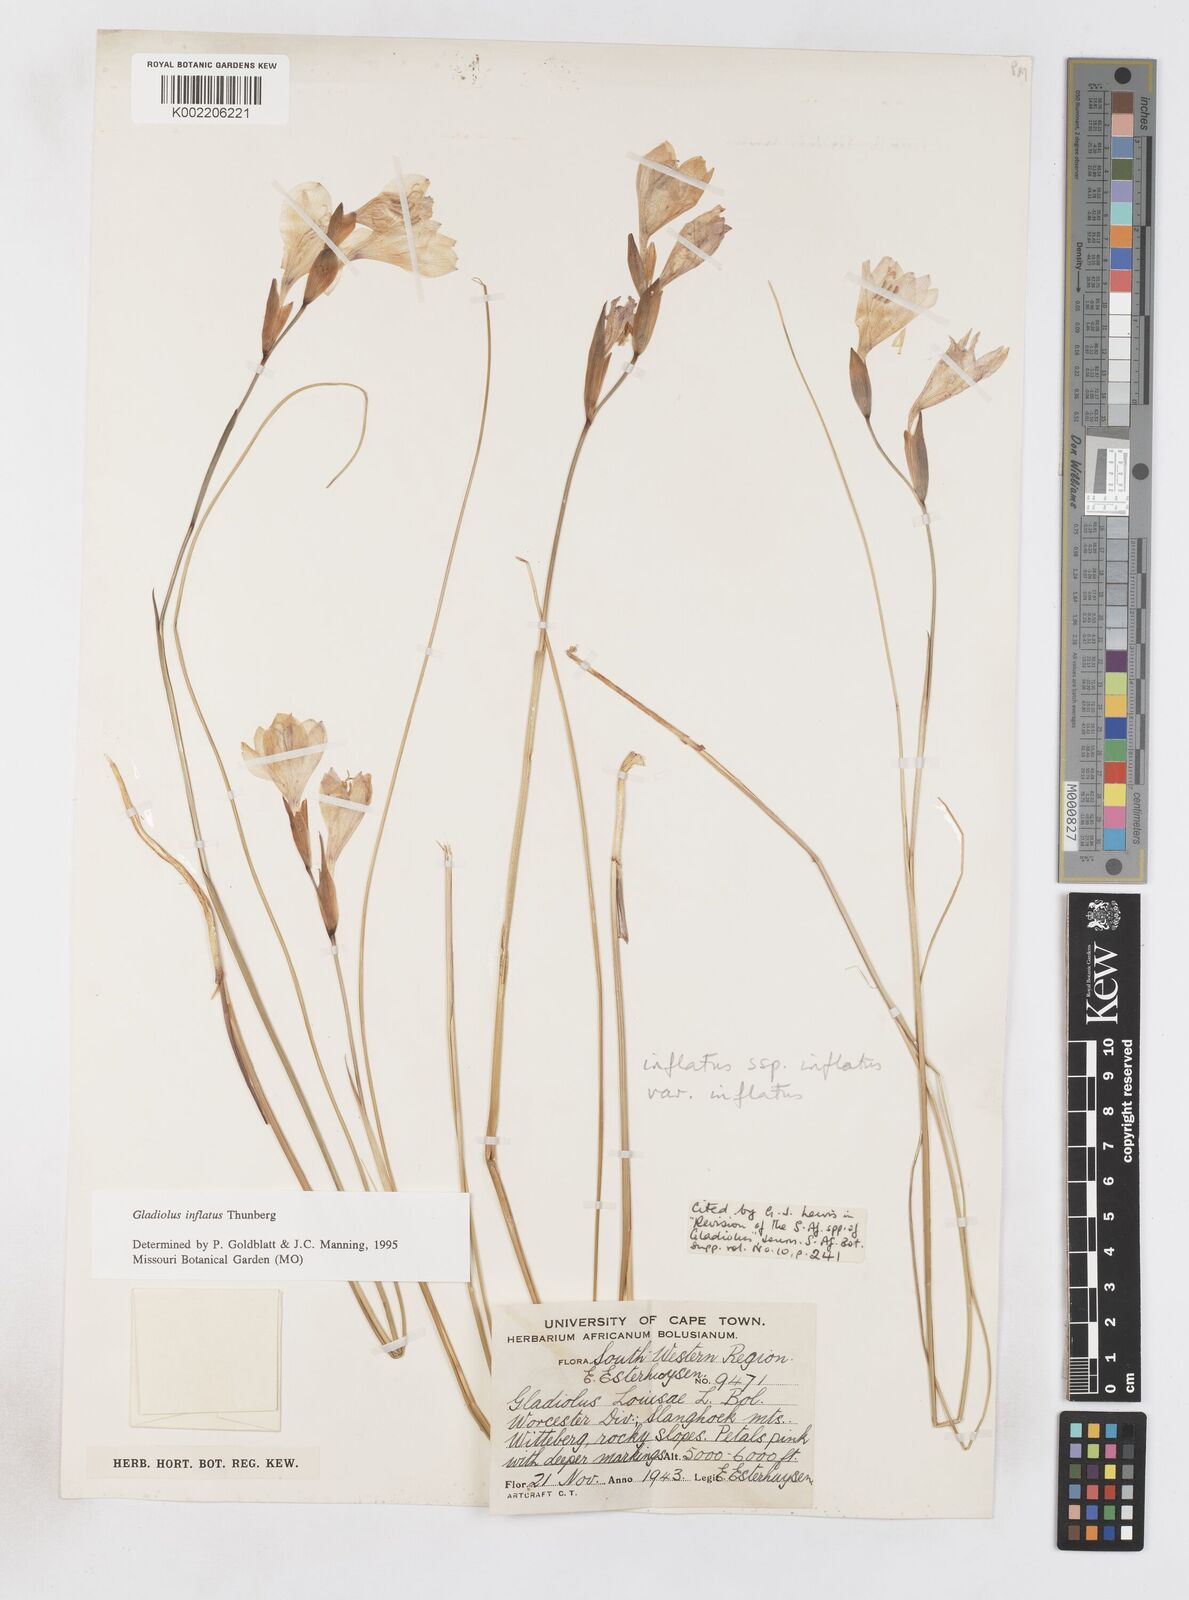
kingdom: Plantae
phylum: Tracheophyta
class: Liliopsida
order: Asparagales
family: Iridaceae
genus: Gladiolus
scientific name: Gladiolus inflatus
